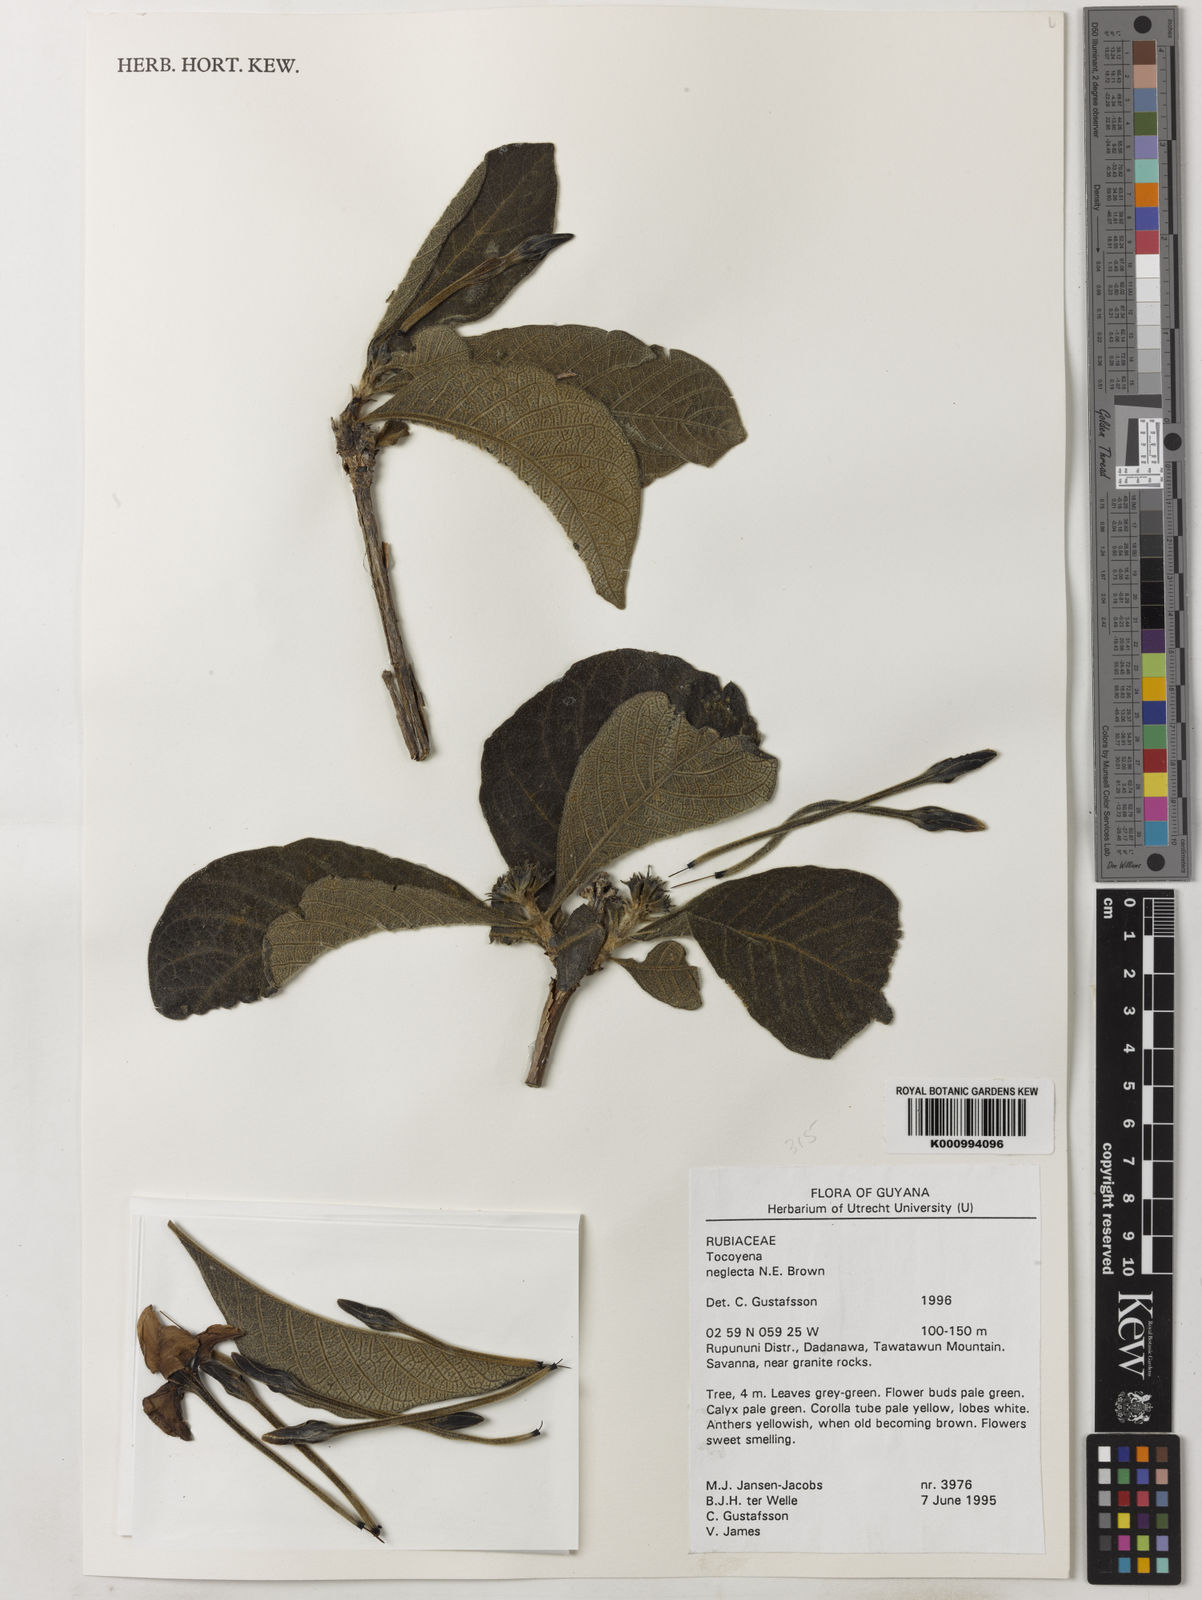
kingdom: Plantae
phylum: Tracheophyta
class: Magnoliopsida
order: Gentianales
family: Rubiaceae
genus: Tocoyena
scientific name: Tocoyena neglecta
